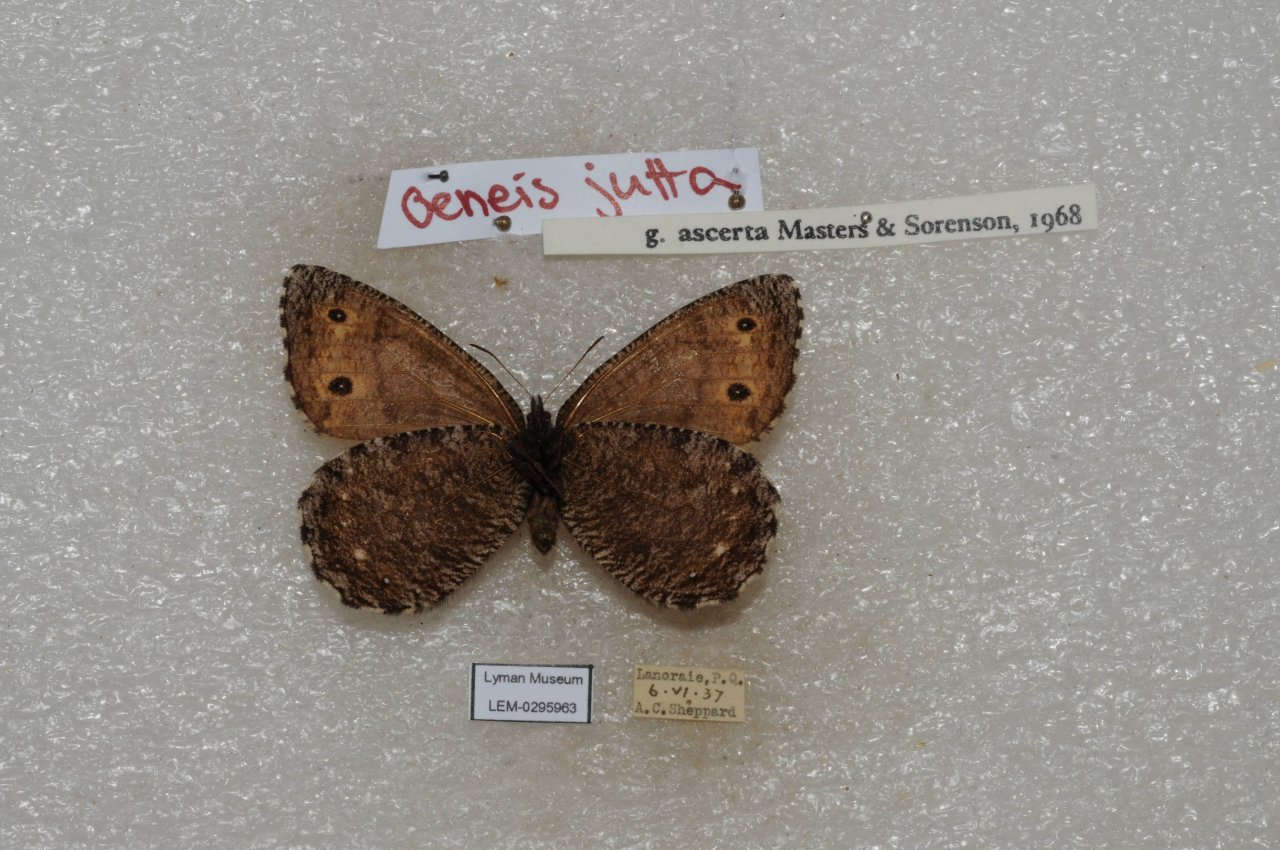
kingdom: Animalia
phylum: Arthropoda
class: Insecta
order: Lepidoptera
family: Nymphalidae
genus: Oeneis
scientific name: Oeneis jutta
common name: Jutta Arctic
